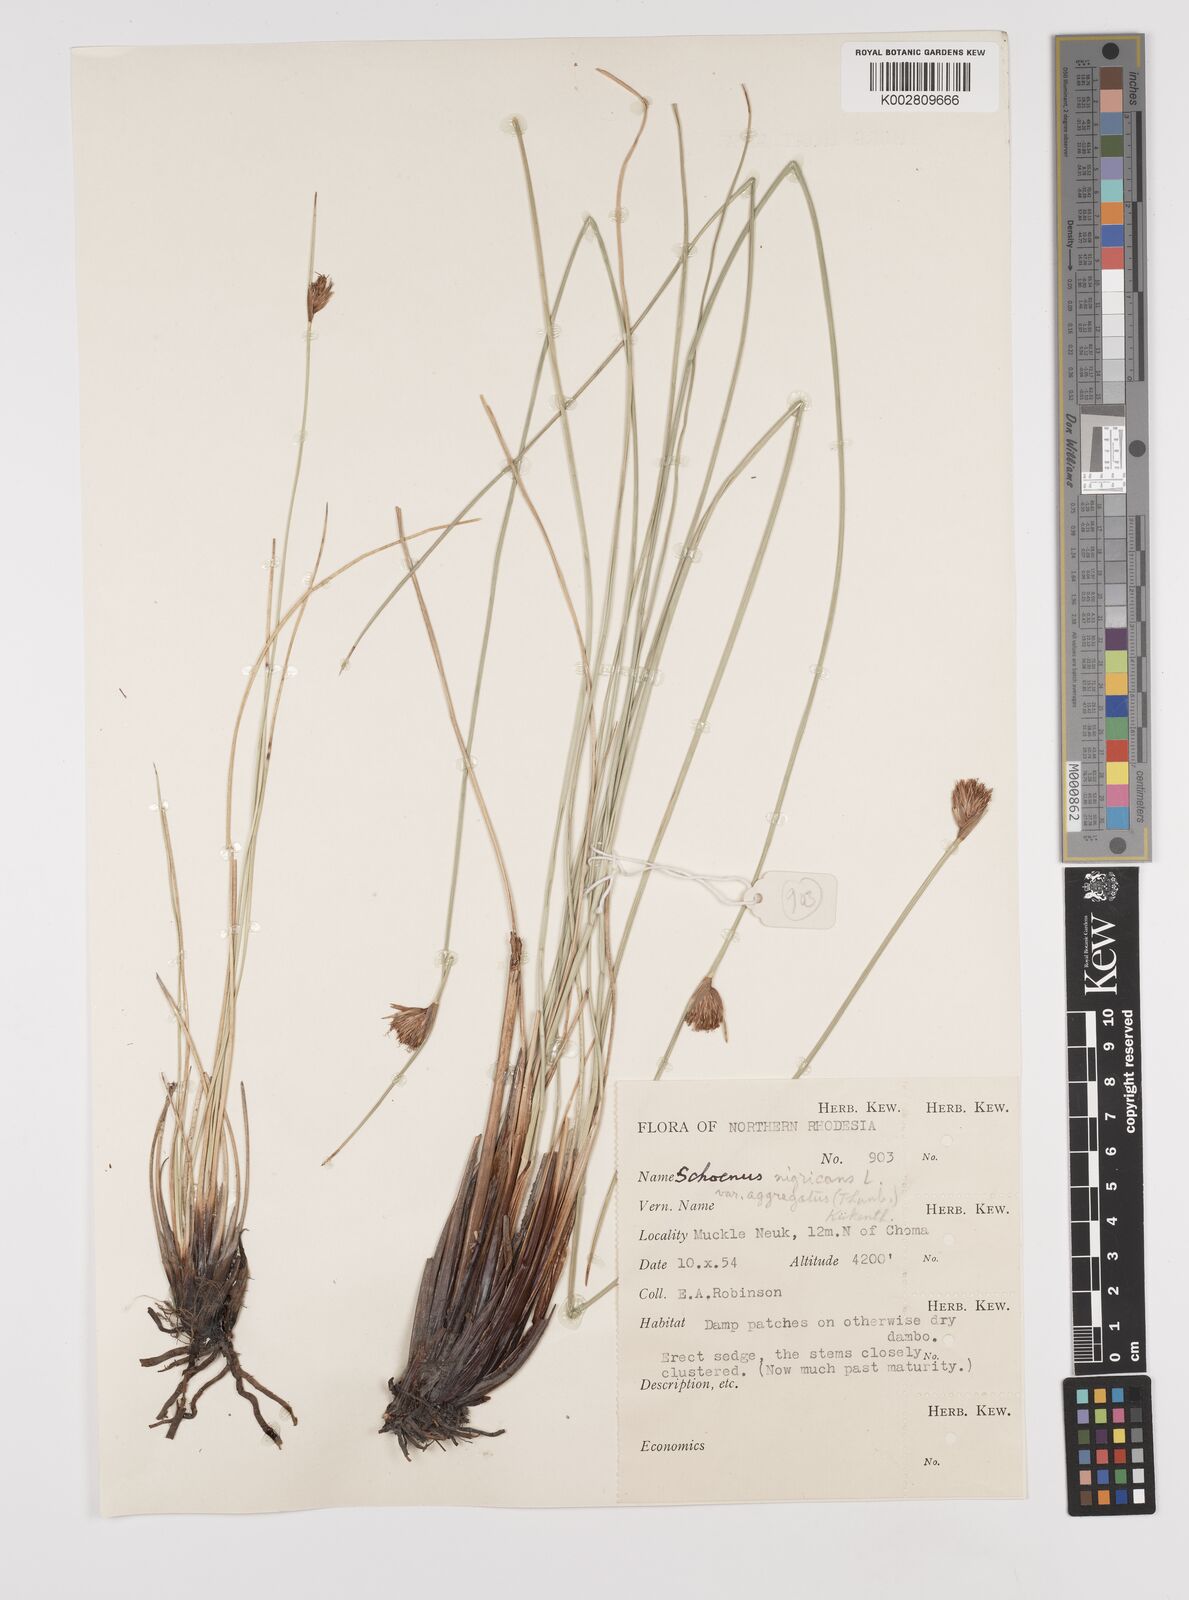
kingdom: Plantae
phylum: Tracheophyta
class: Liliopsida
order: Poales
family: Cyperaceae
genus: Schoenus
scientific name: Schoenus nigricans
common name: Black bog-rush
